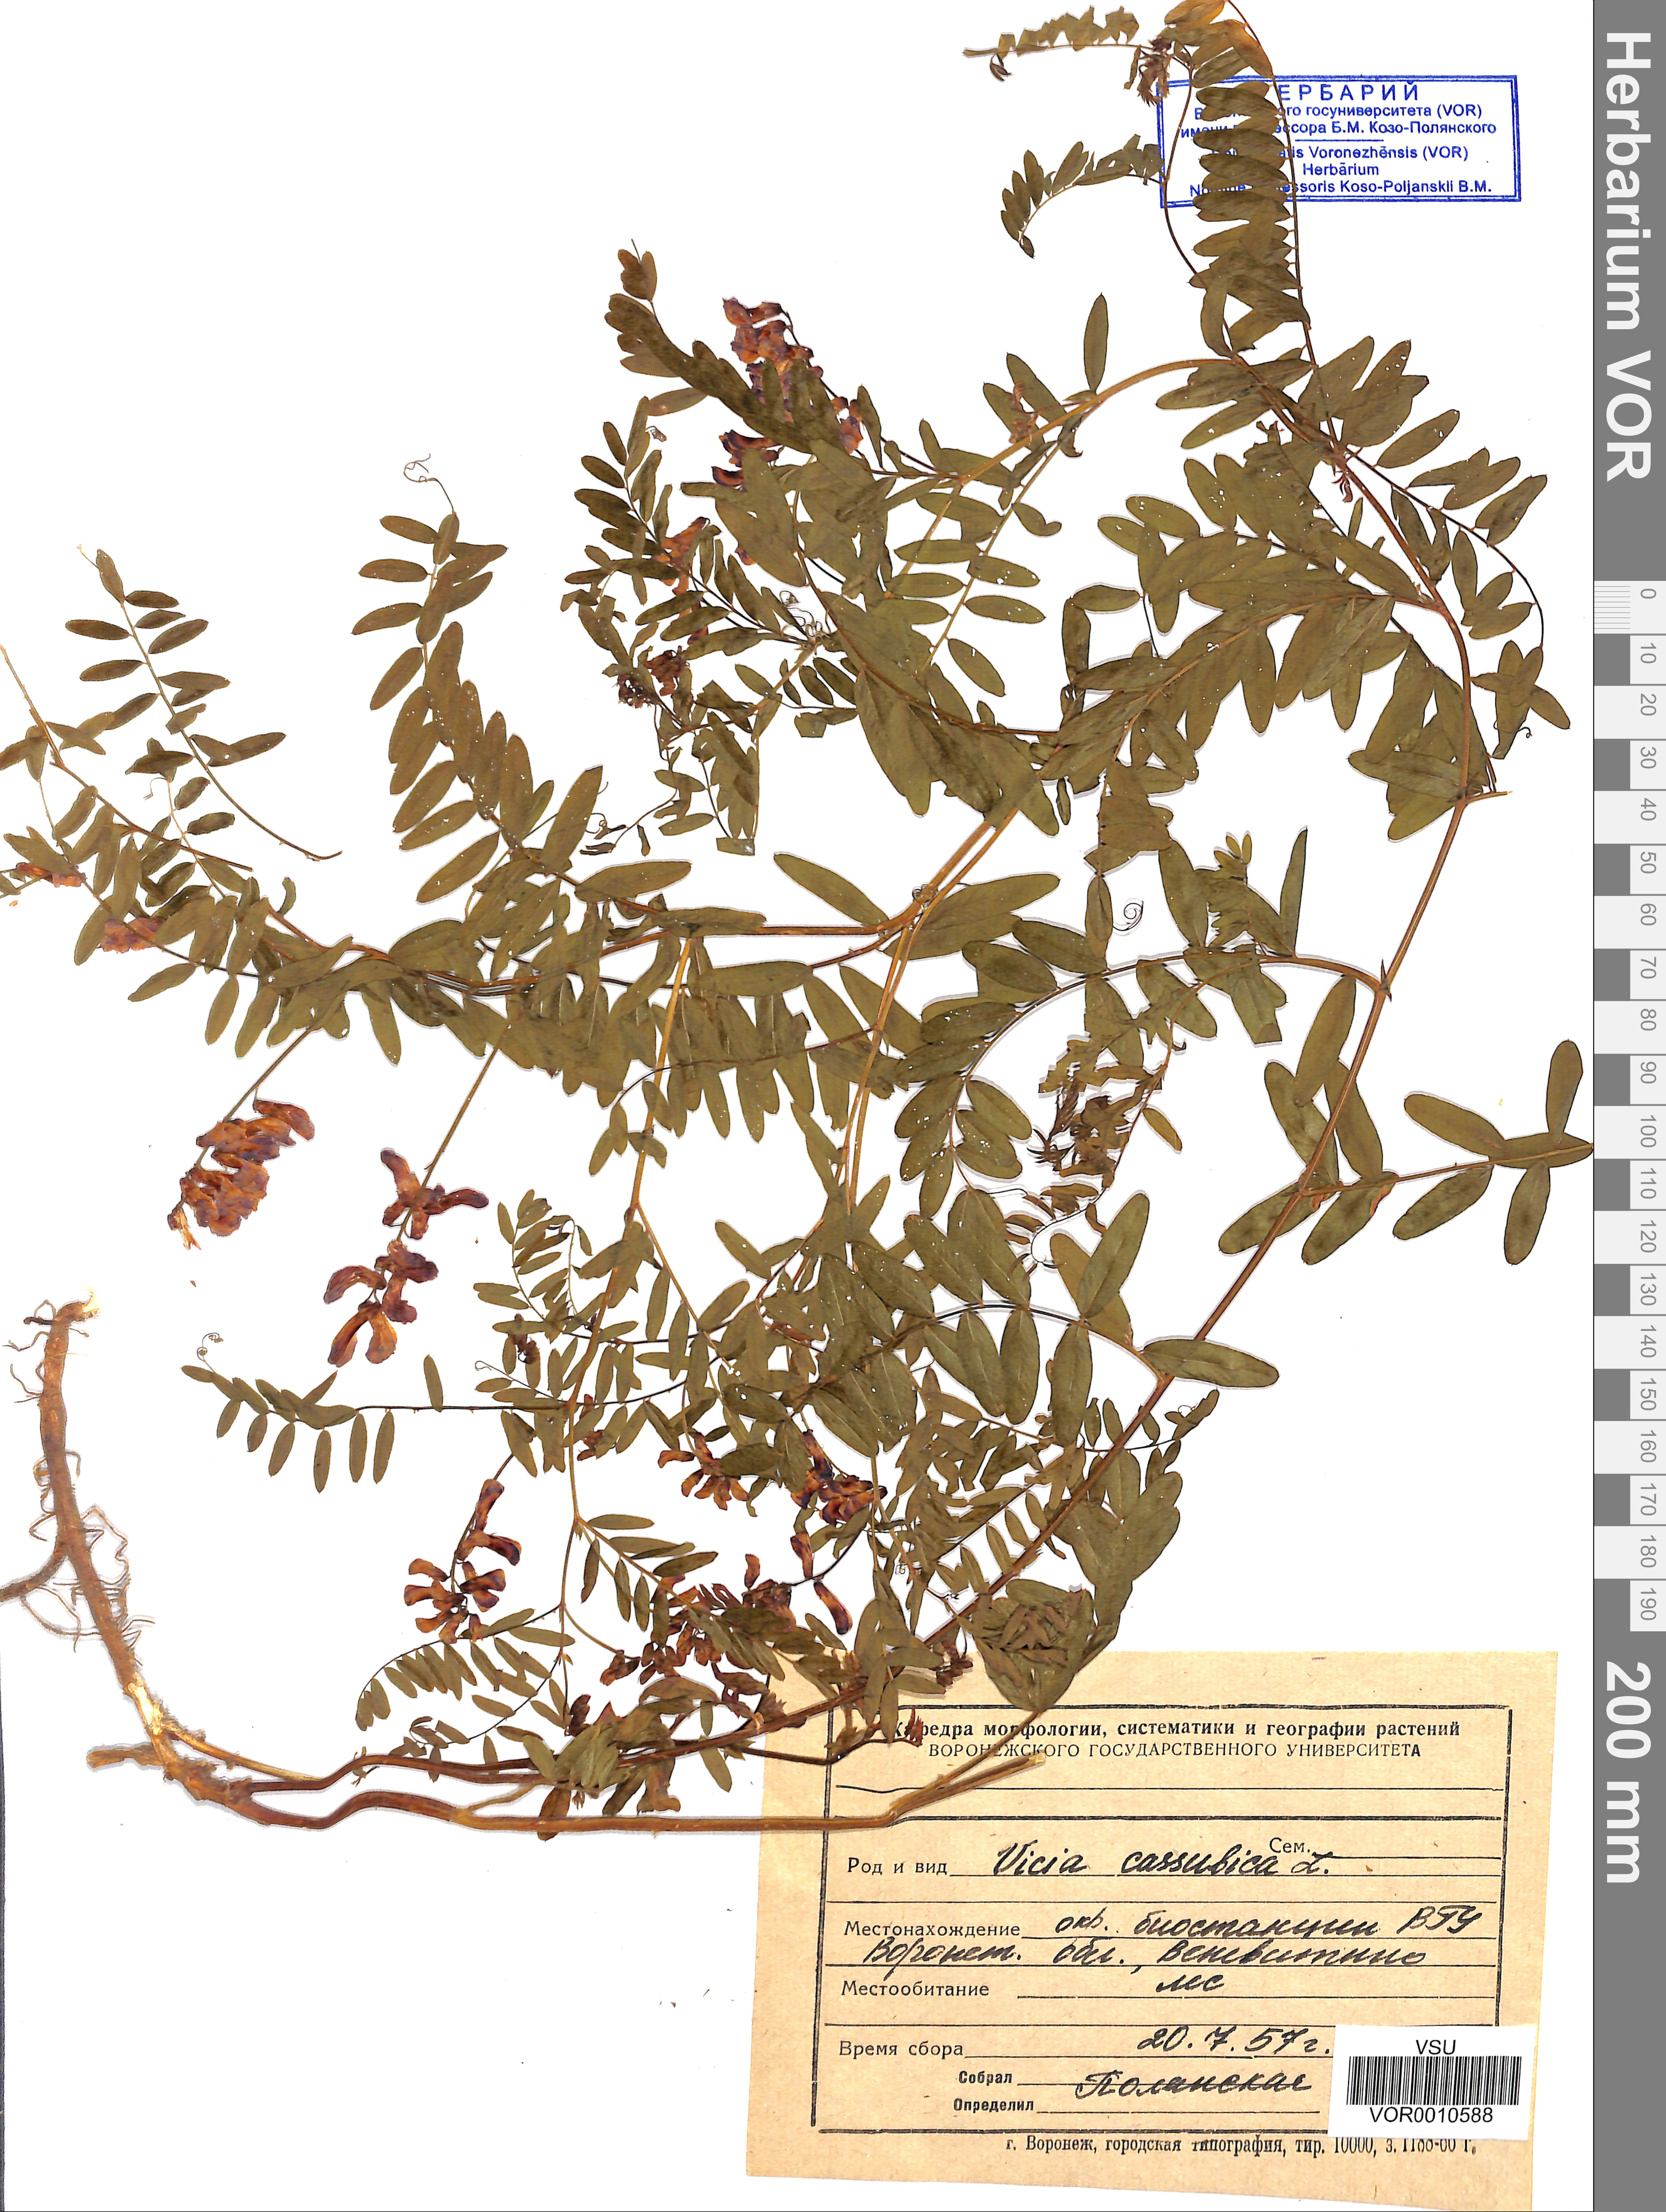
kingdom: Plantae
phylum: Tracheophyta
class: Magnoliopsida
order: Fabales
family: Fabaceae
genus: Vicia
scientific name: Vicia cassubica
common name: Danzig vetch
